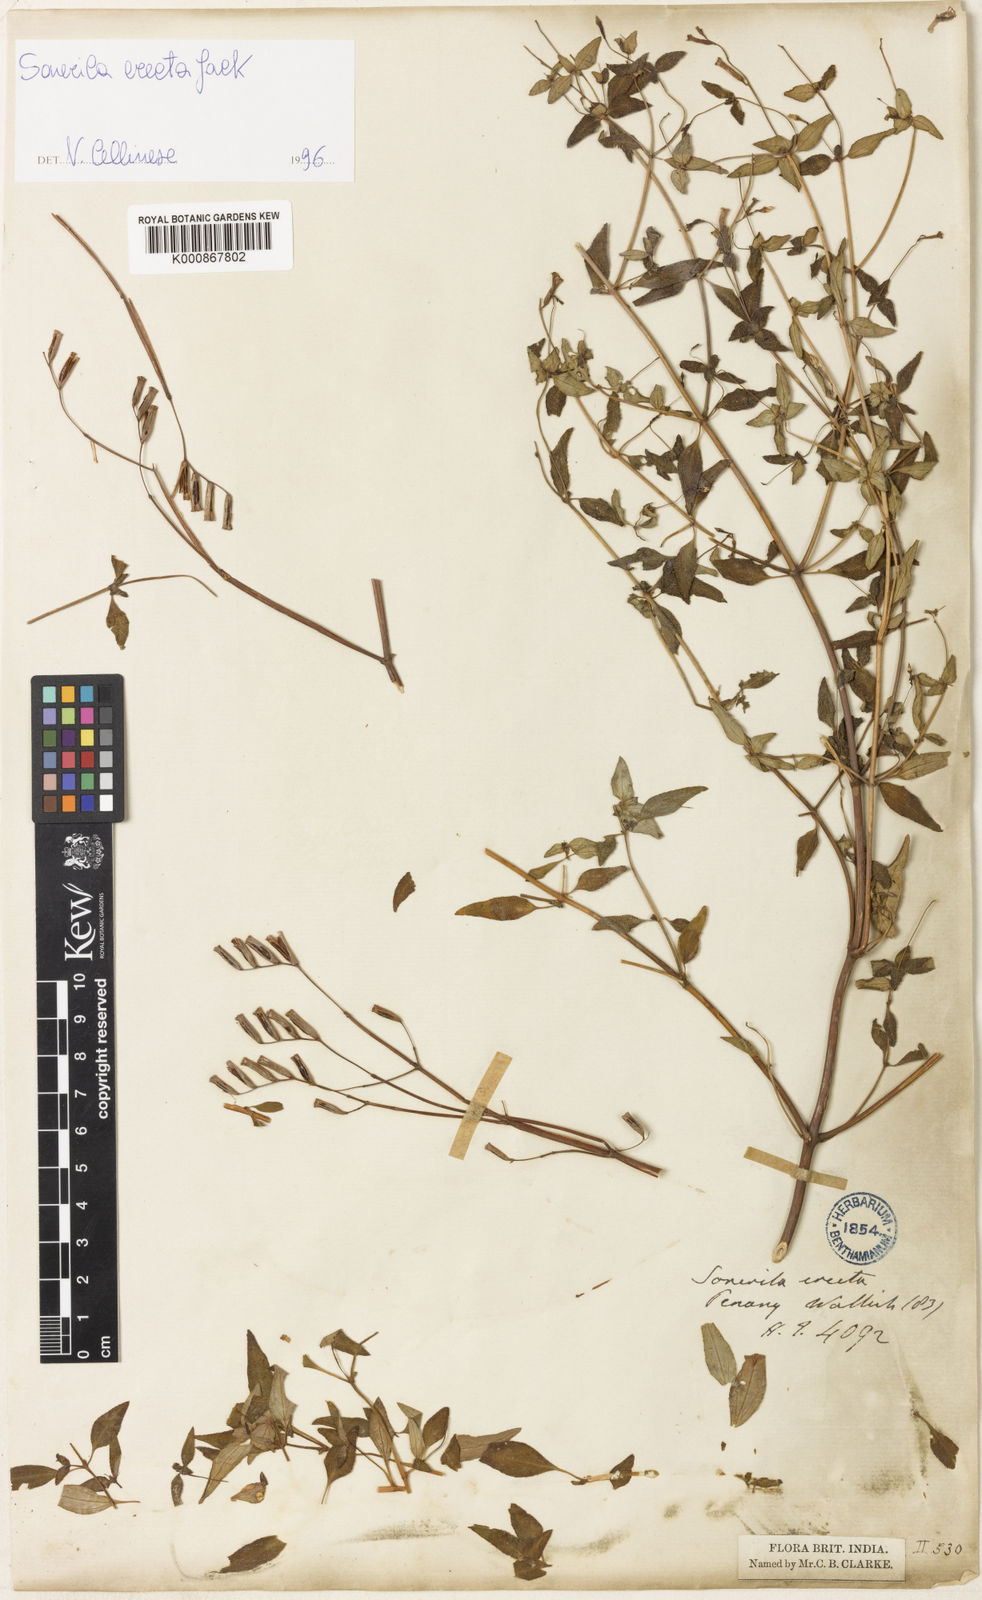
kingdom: Plantae
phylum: Tracheophyta
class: Magnoliopsida
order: Myrtales
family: Melastomataceae
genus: Sonerila
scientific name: Sonerila erecta
